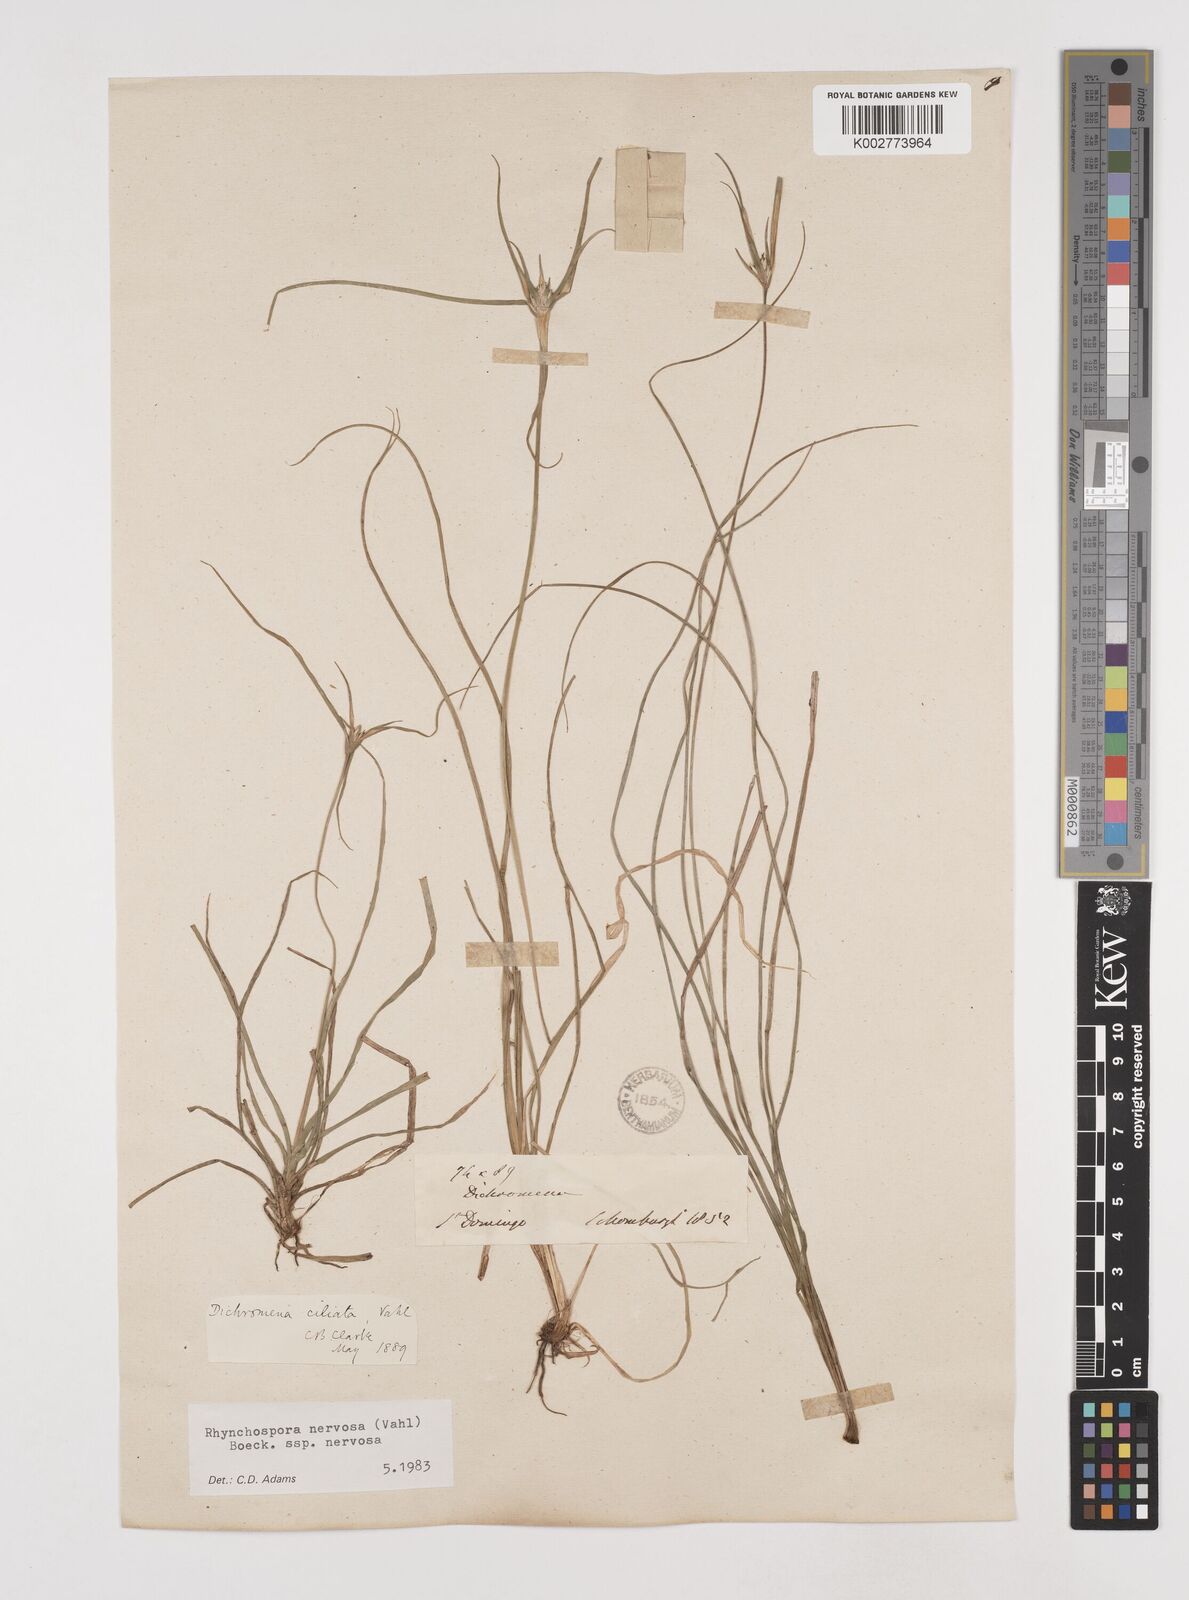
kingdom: Plantae
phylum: Tracheophyta
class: Liliopsida
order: Poales
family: Cyperaceae
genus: Rhynchospora
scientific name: Rhynchospora nervosa
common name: Star sedge
